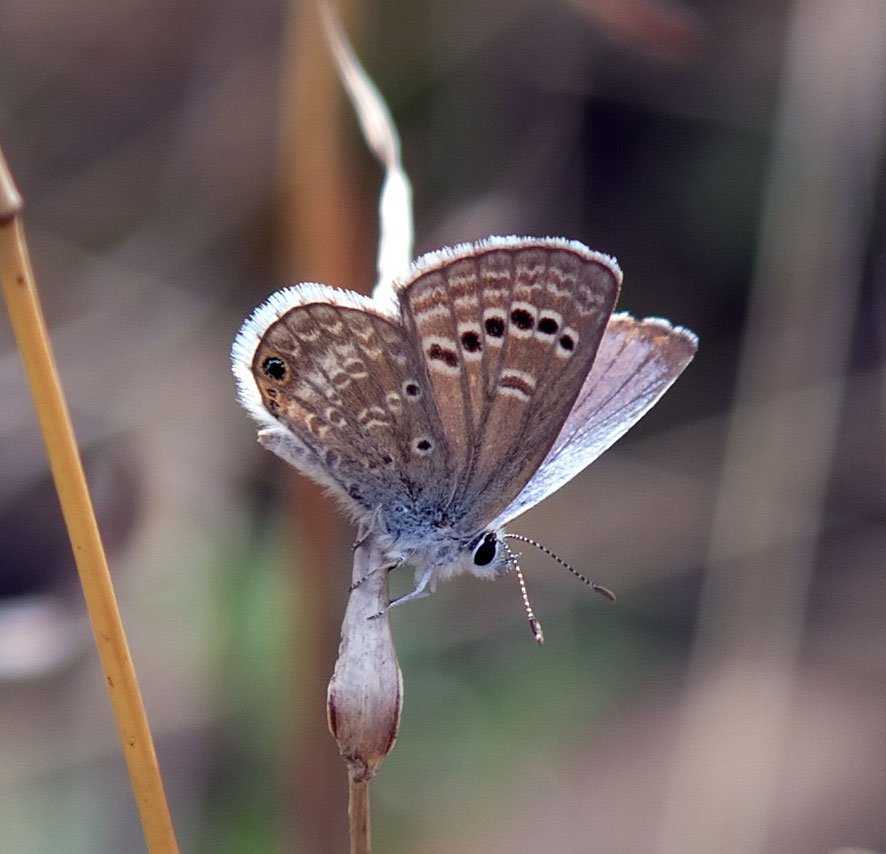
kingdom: Animalia
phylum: Arthropoda
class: Insecta
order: Lepidoptera
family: Lycaenidae
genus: Echinargus
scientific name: Echinargus isola
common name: Reakirt's Blue
